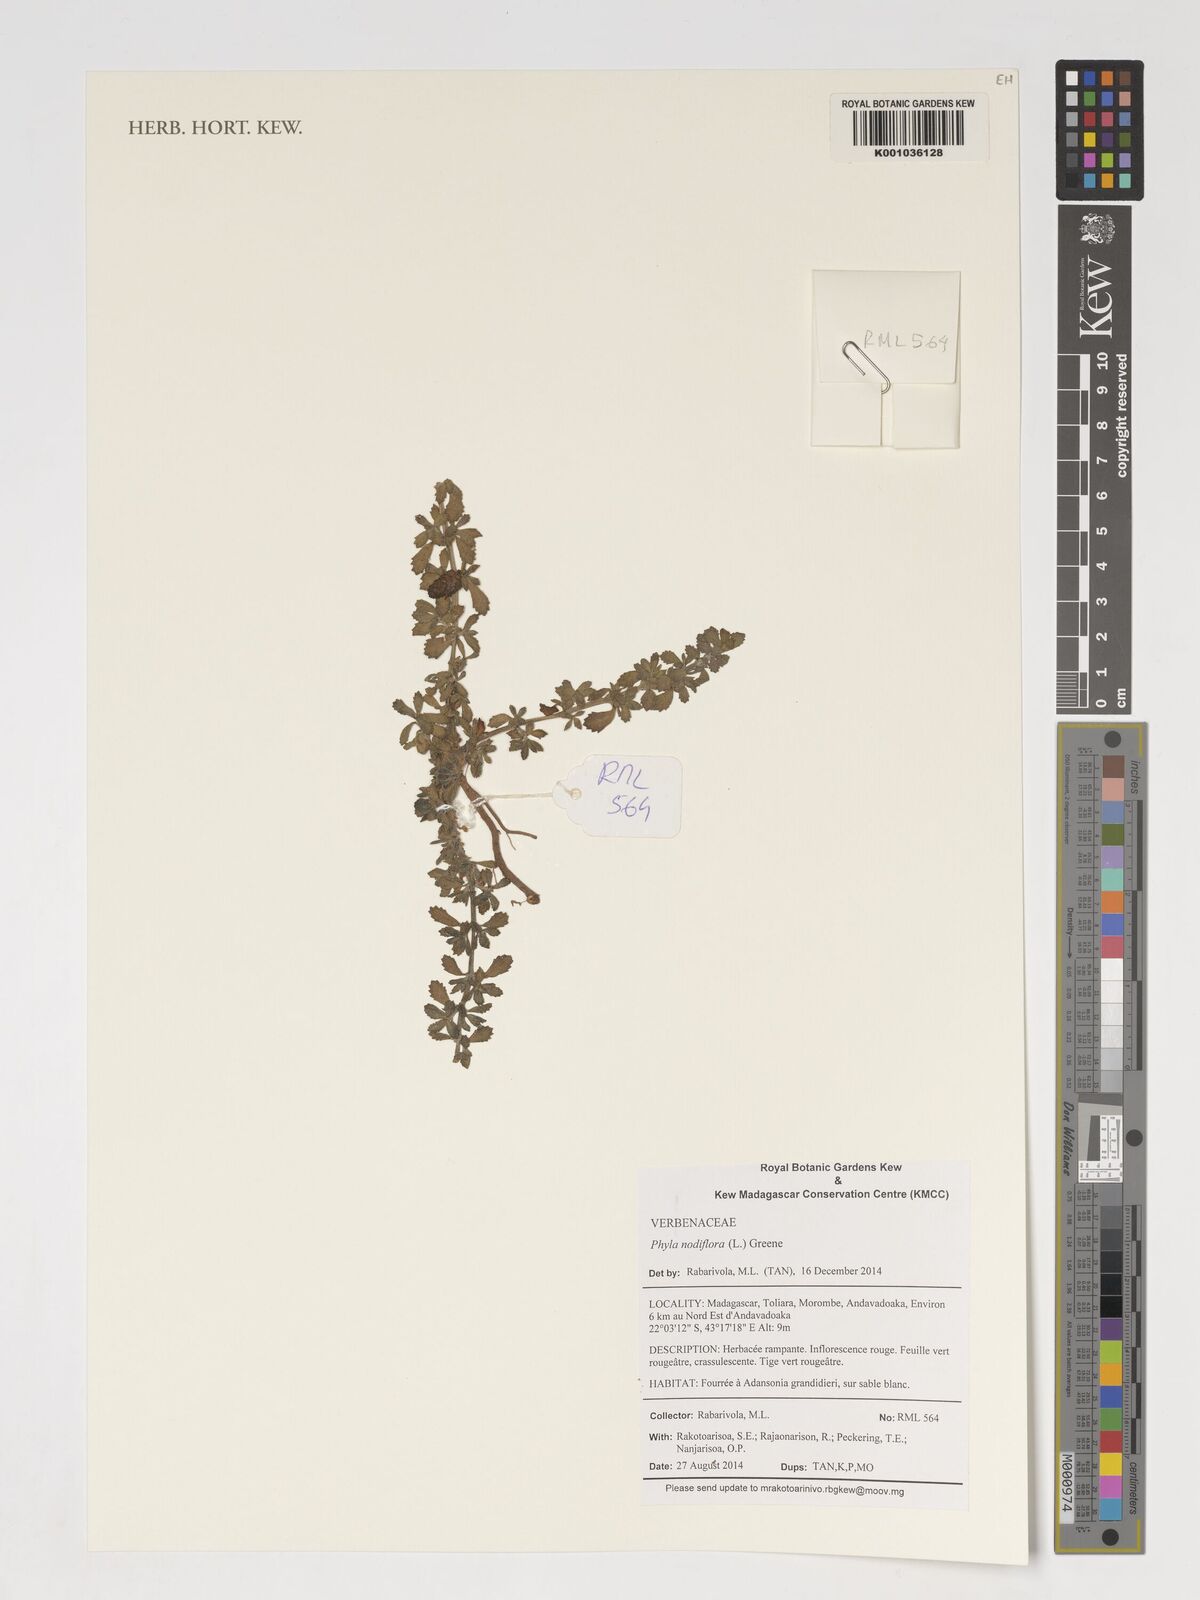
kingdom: Plantae
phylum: Tracheophyta
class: Magnoliopsida
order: Lamiales
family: Verbenaceae
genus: Phyla
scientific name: Phyla nodiflora
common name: Frogfruit
